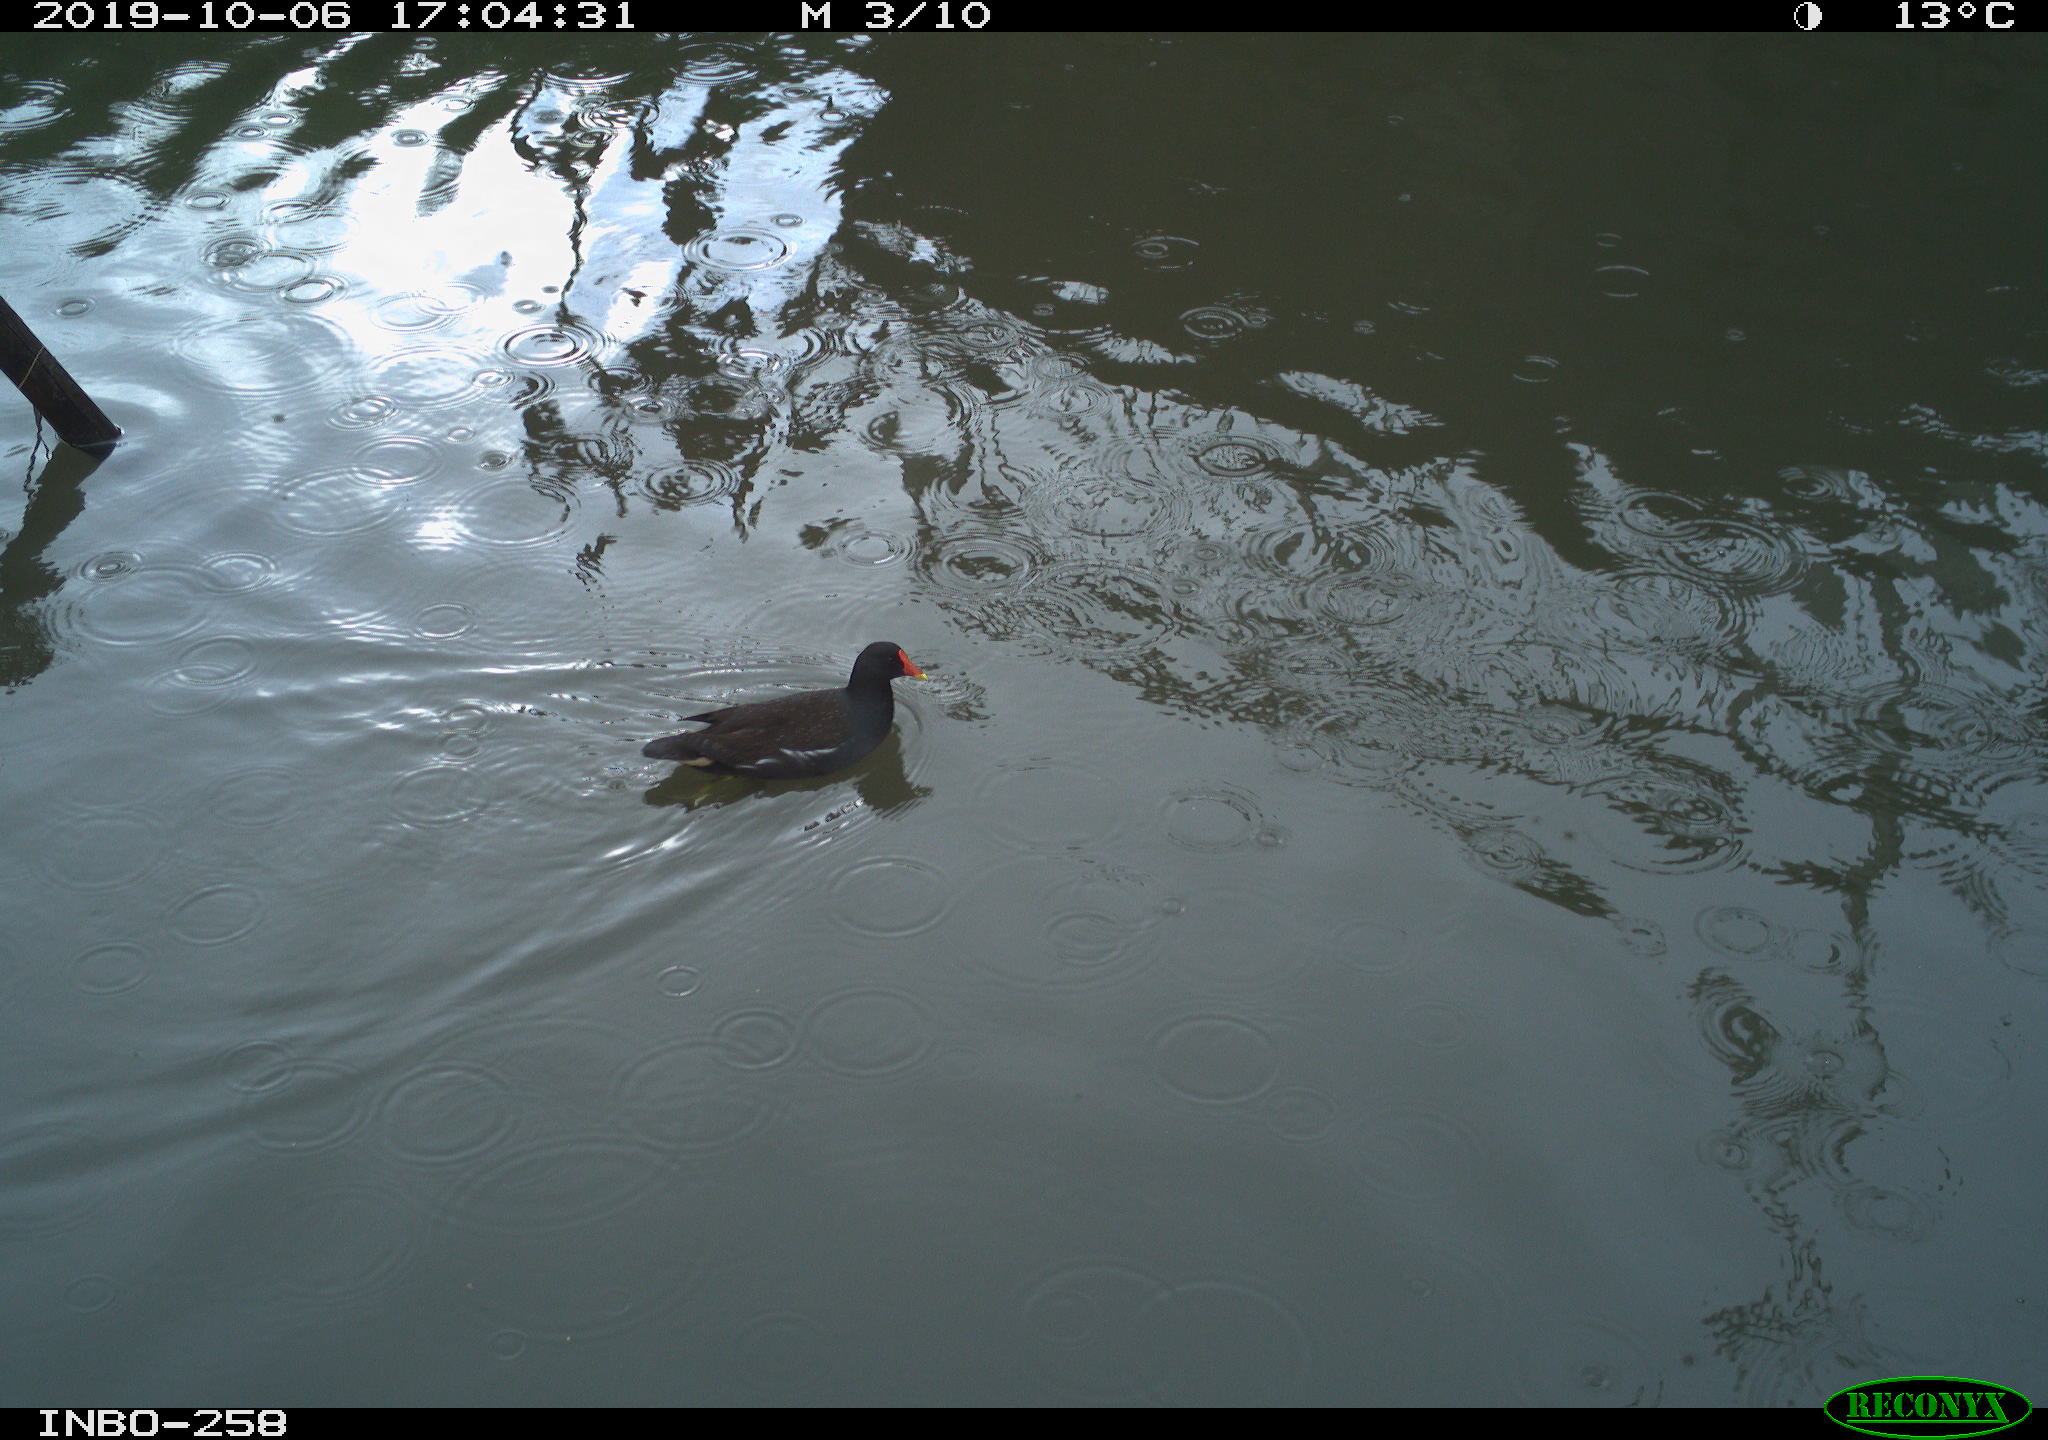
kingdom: Animalia
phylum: Chordata
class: Aves
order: Gruiformes
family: Rallidae
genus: Gallinula
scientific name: Gallinula chloropus
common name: Common moorhen
